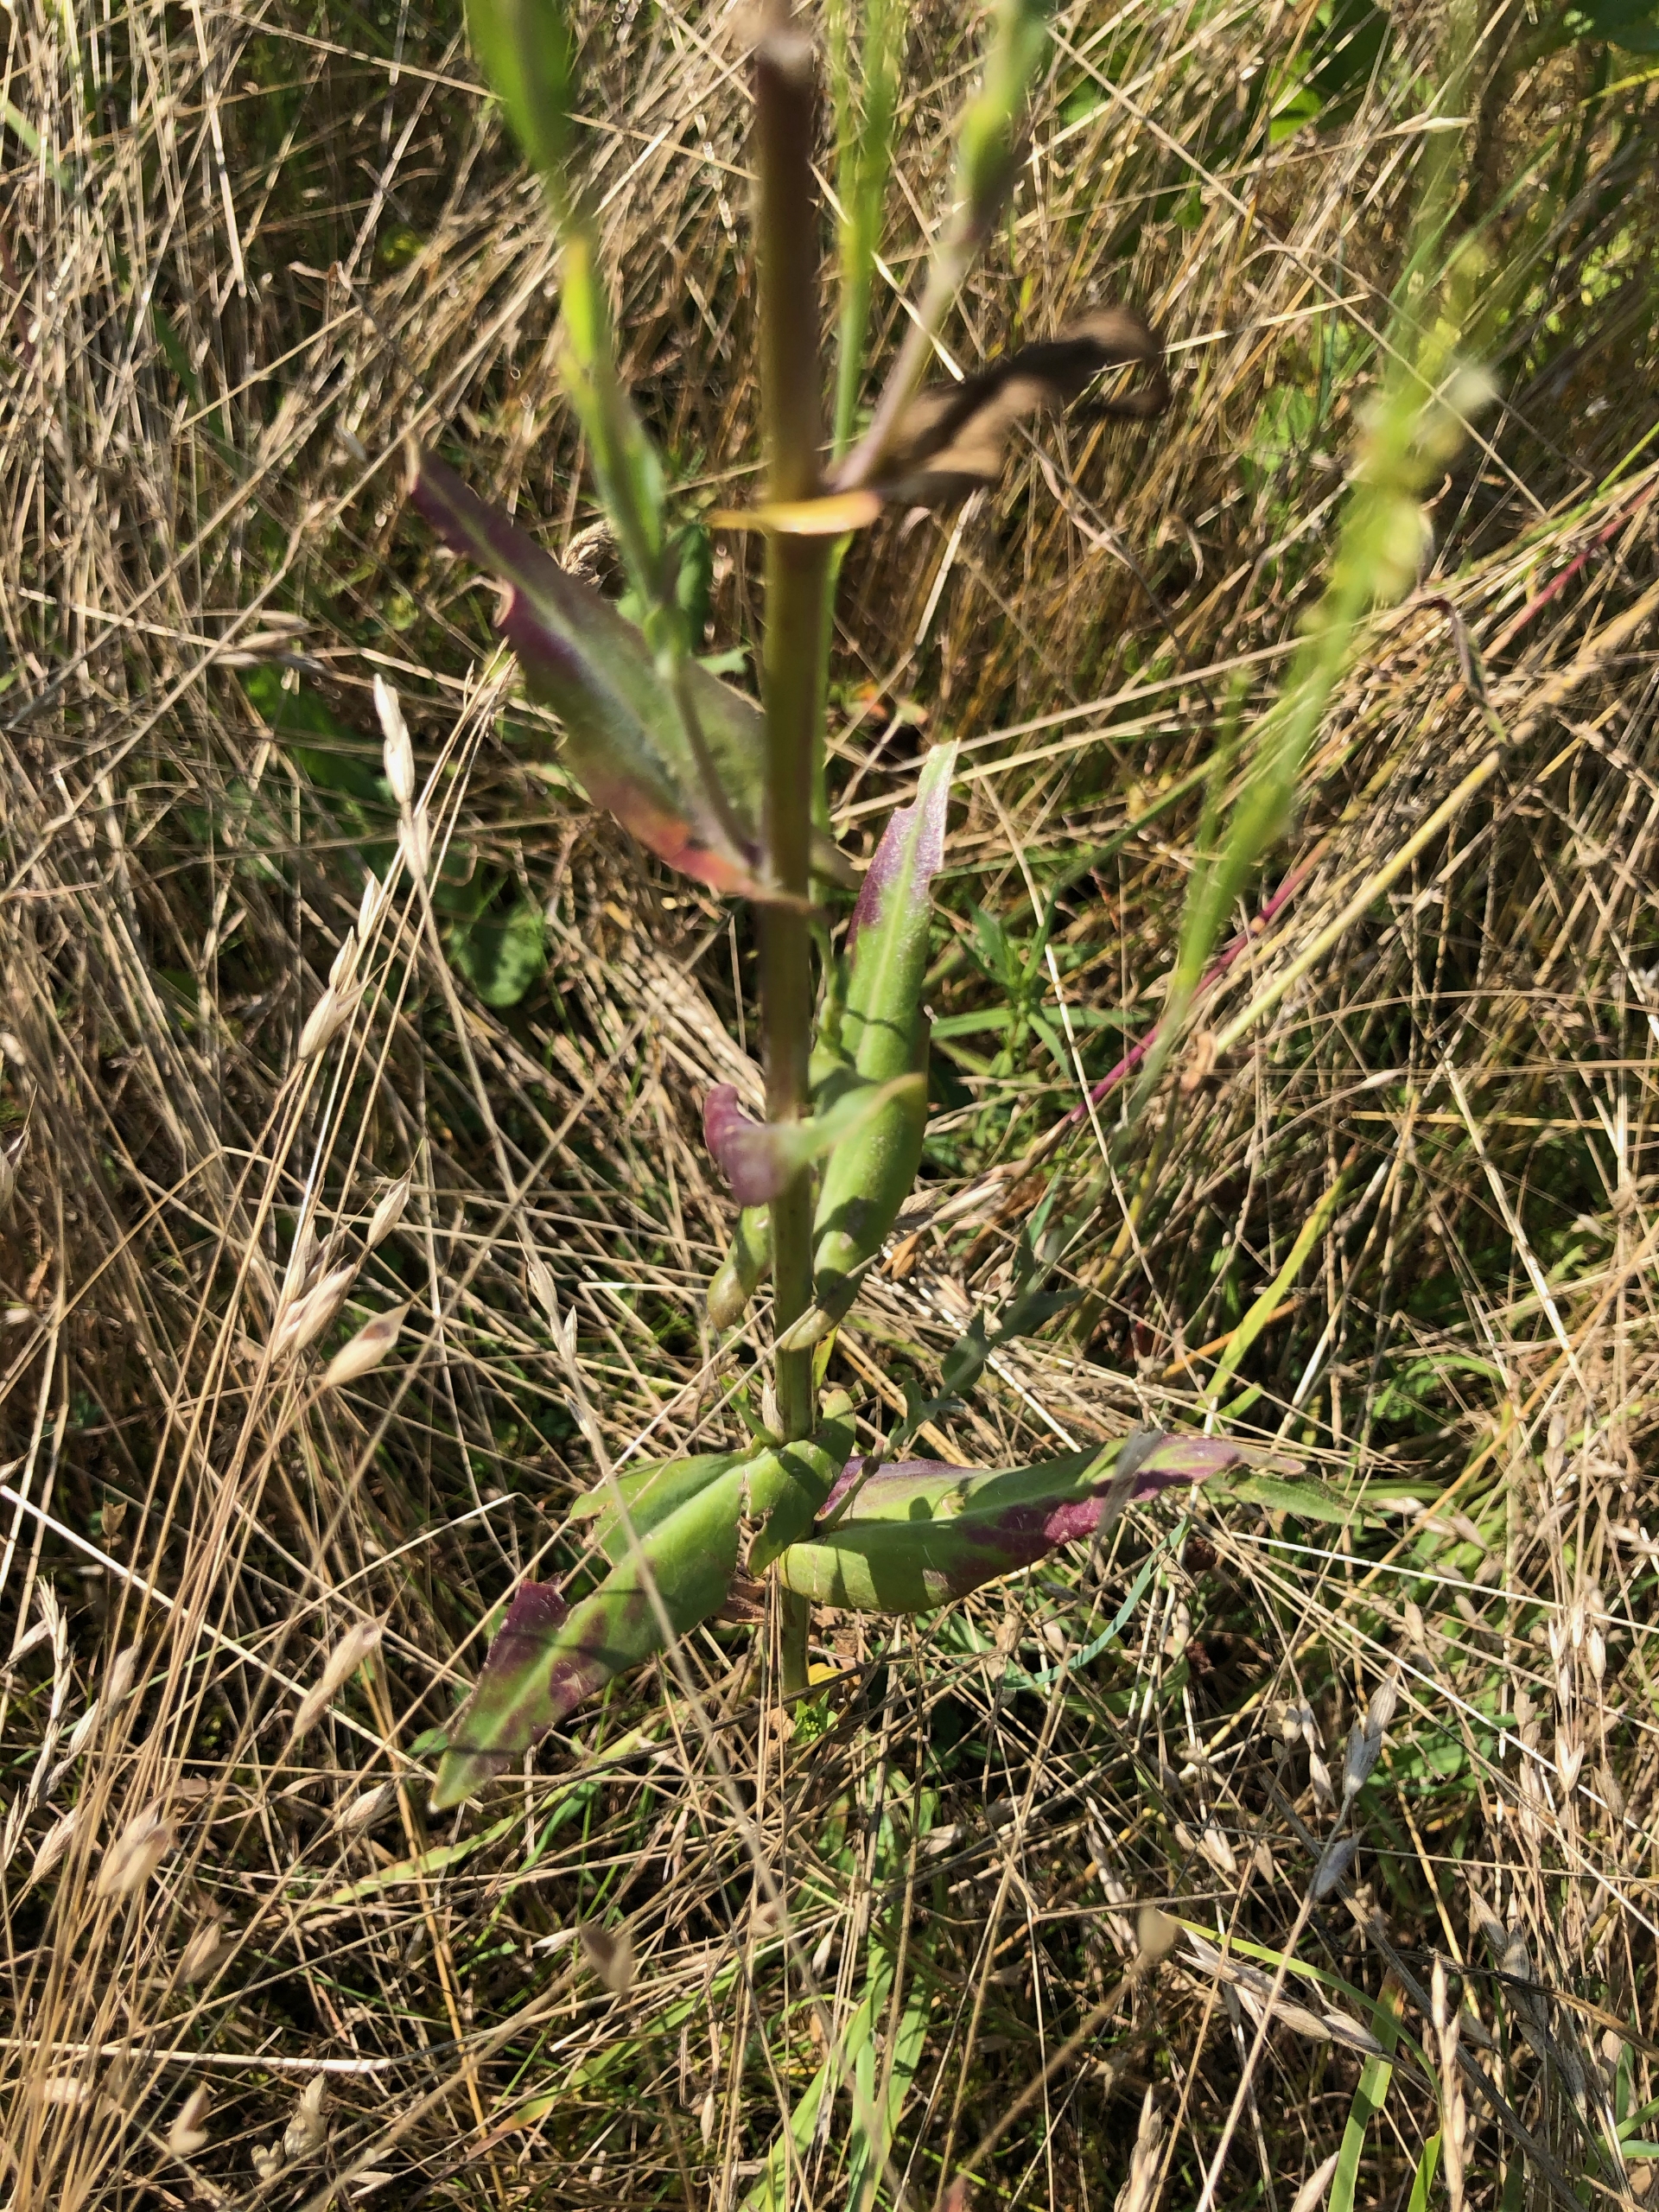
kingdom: Plantae
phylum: Tracheophyta
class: Magnoliopsida
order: Brassicales
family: Brassicaceae
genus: Turritis
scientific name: Turritis glabra
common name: Tårnurt
